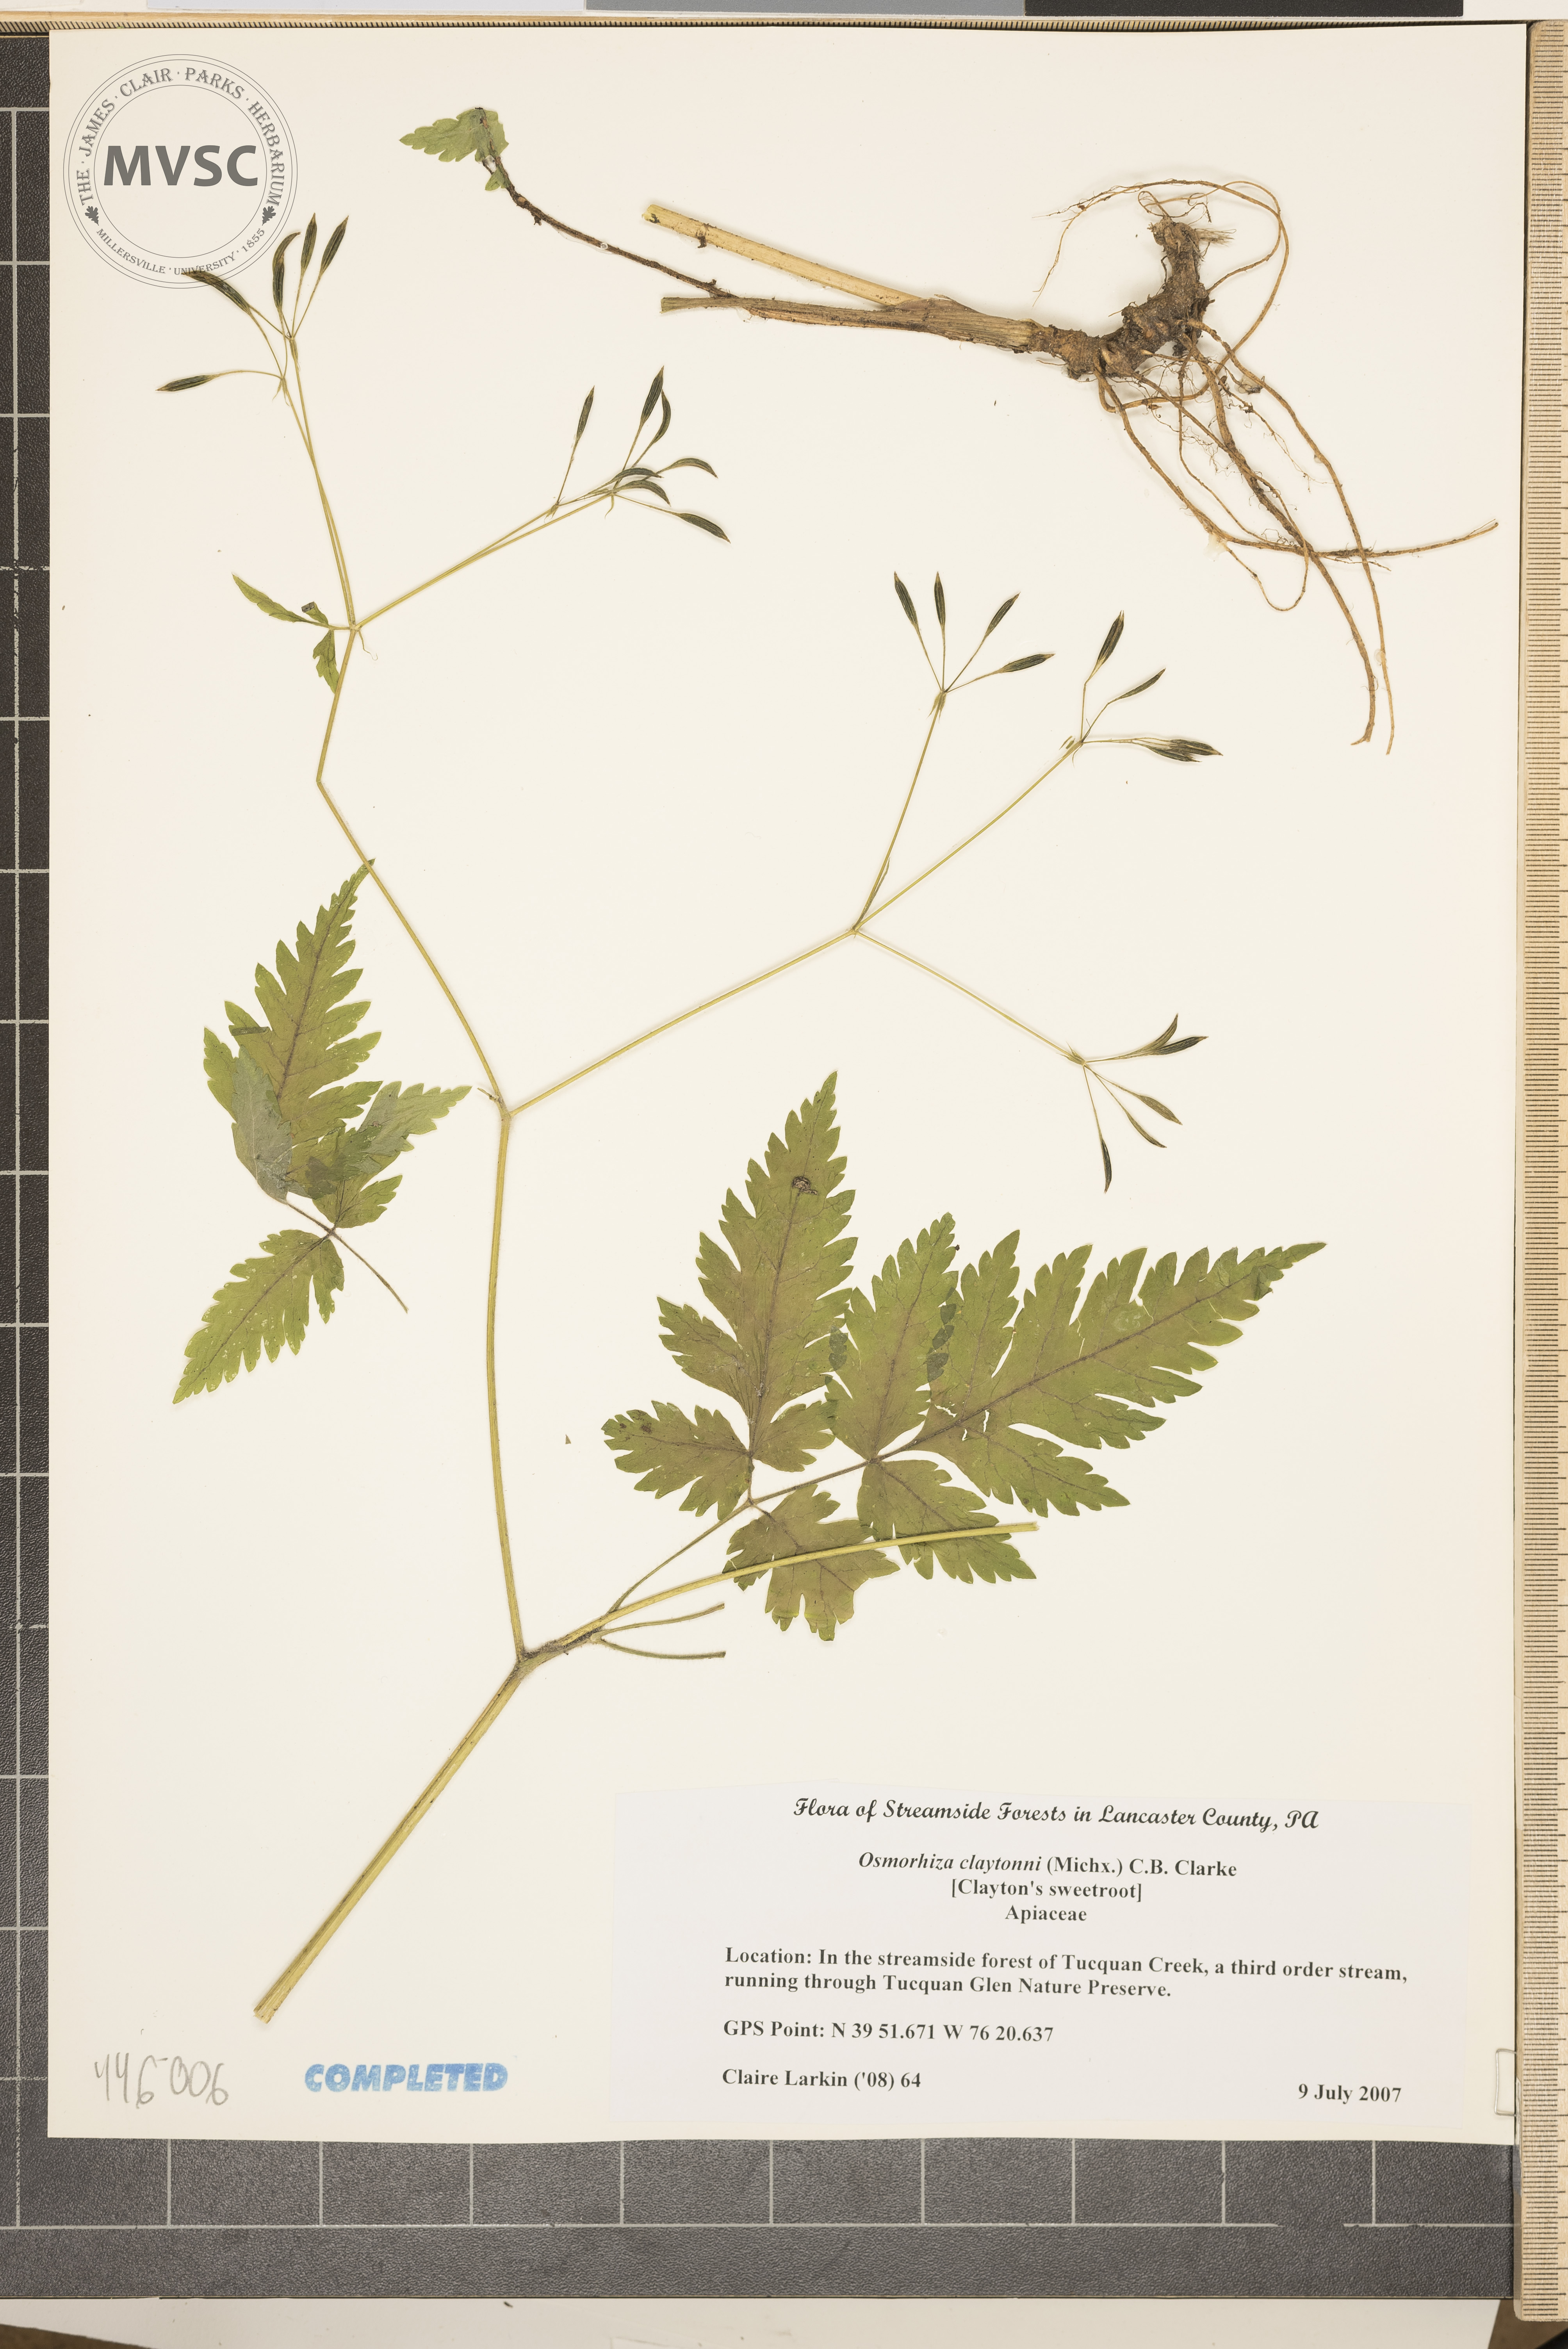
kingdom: Plantae
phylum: Tracheophyta
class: Magnoliopsida
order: Apiales
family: Apiaceae
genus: Osmorhiza
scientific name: Osmorhiza claytonii
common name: Hairy sweet cicely
